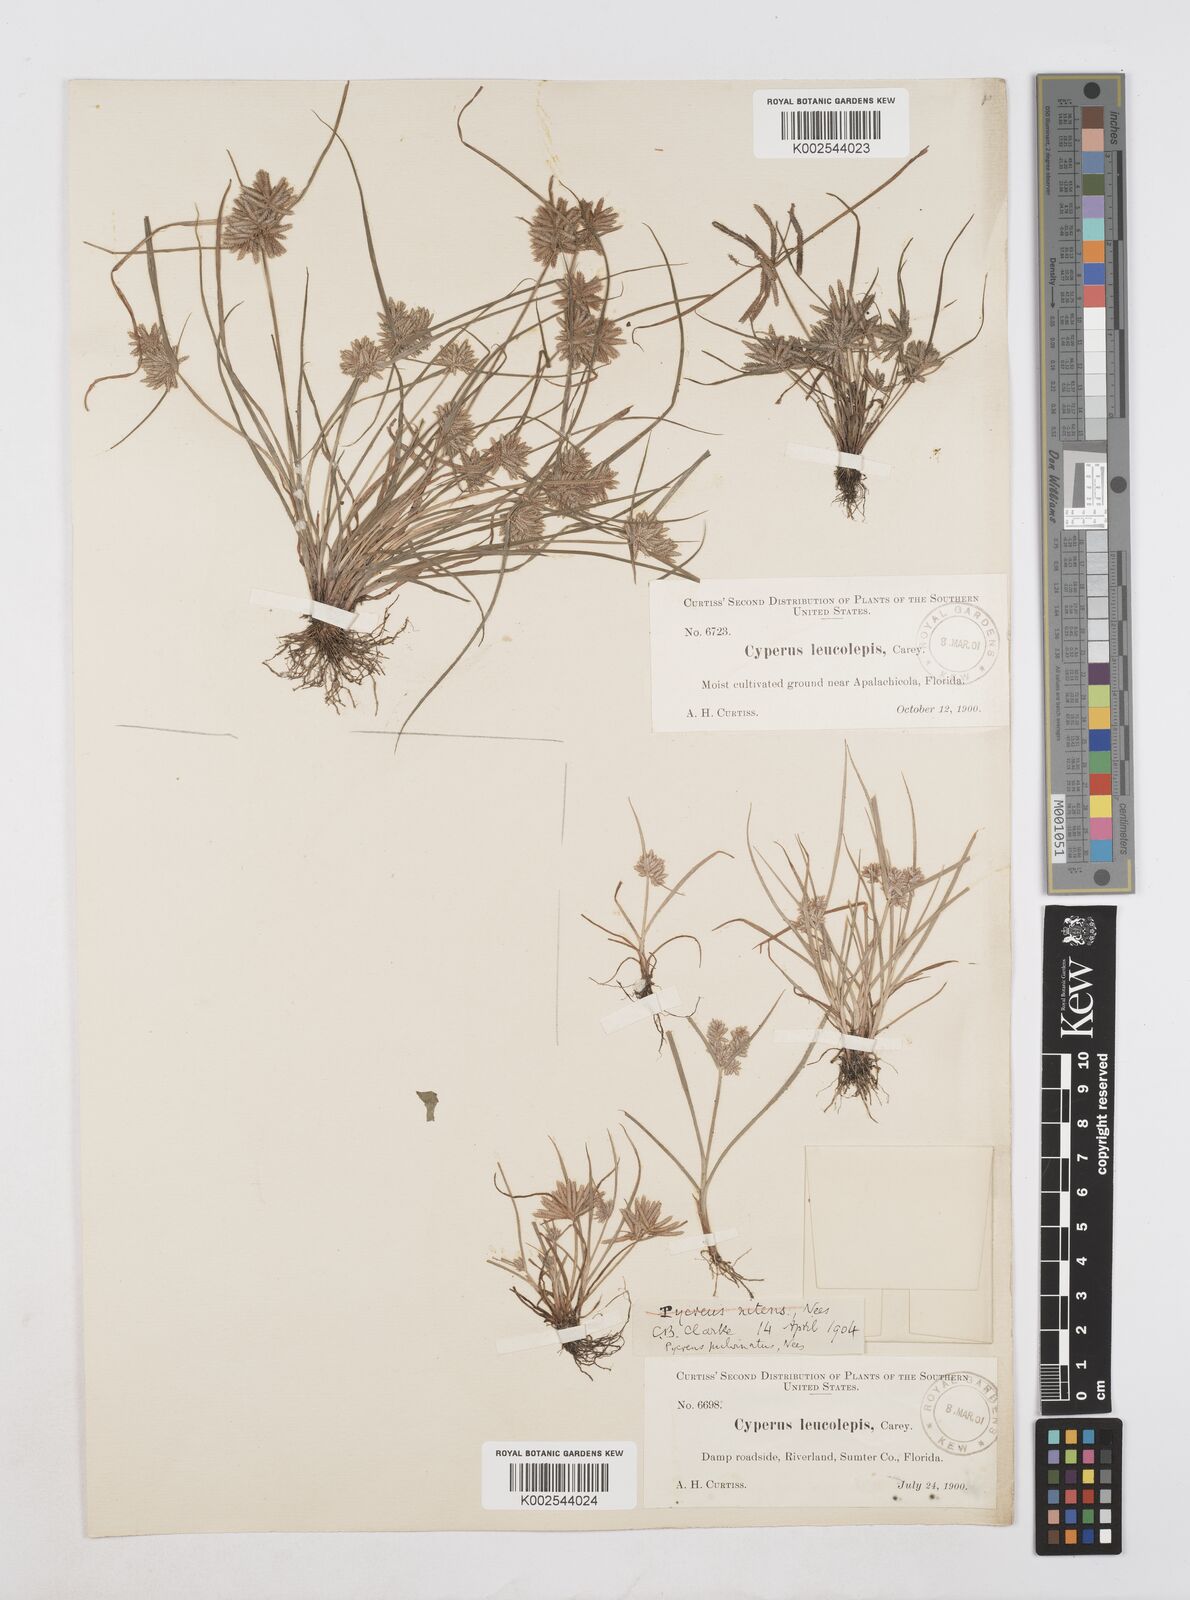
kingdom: Plantae
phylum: Tracheophyta
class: Liliopsida
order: Poales
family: Cyperaceae
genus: Cyperus
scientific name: Cyperus pumilus
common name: Low flatsedge
